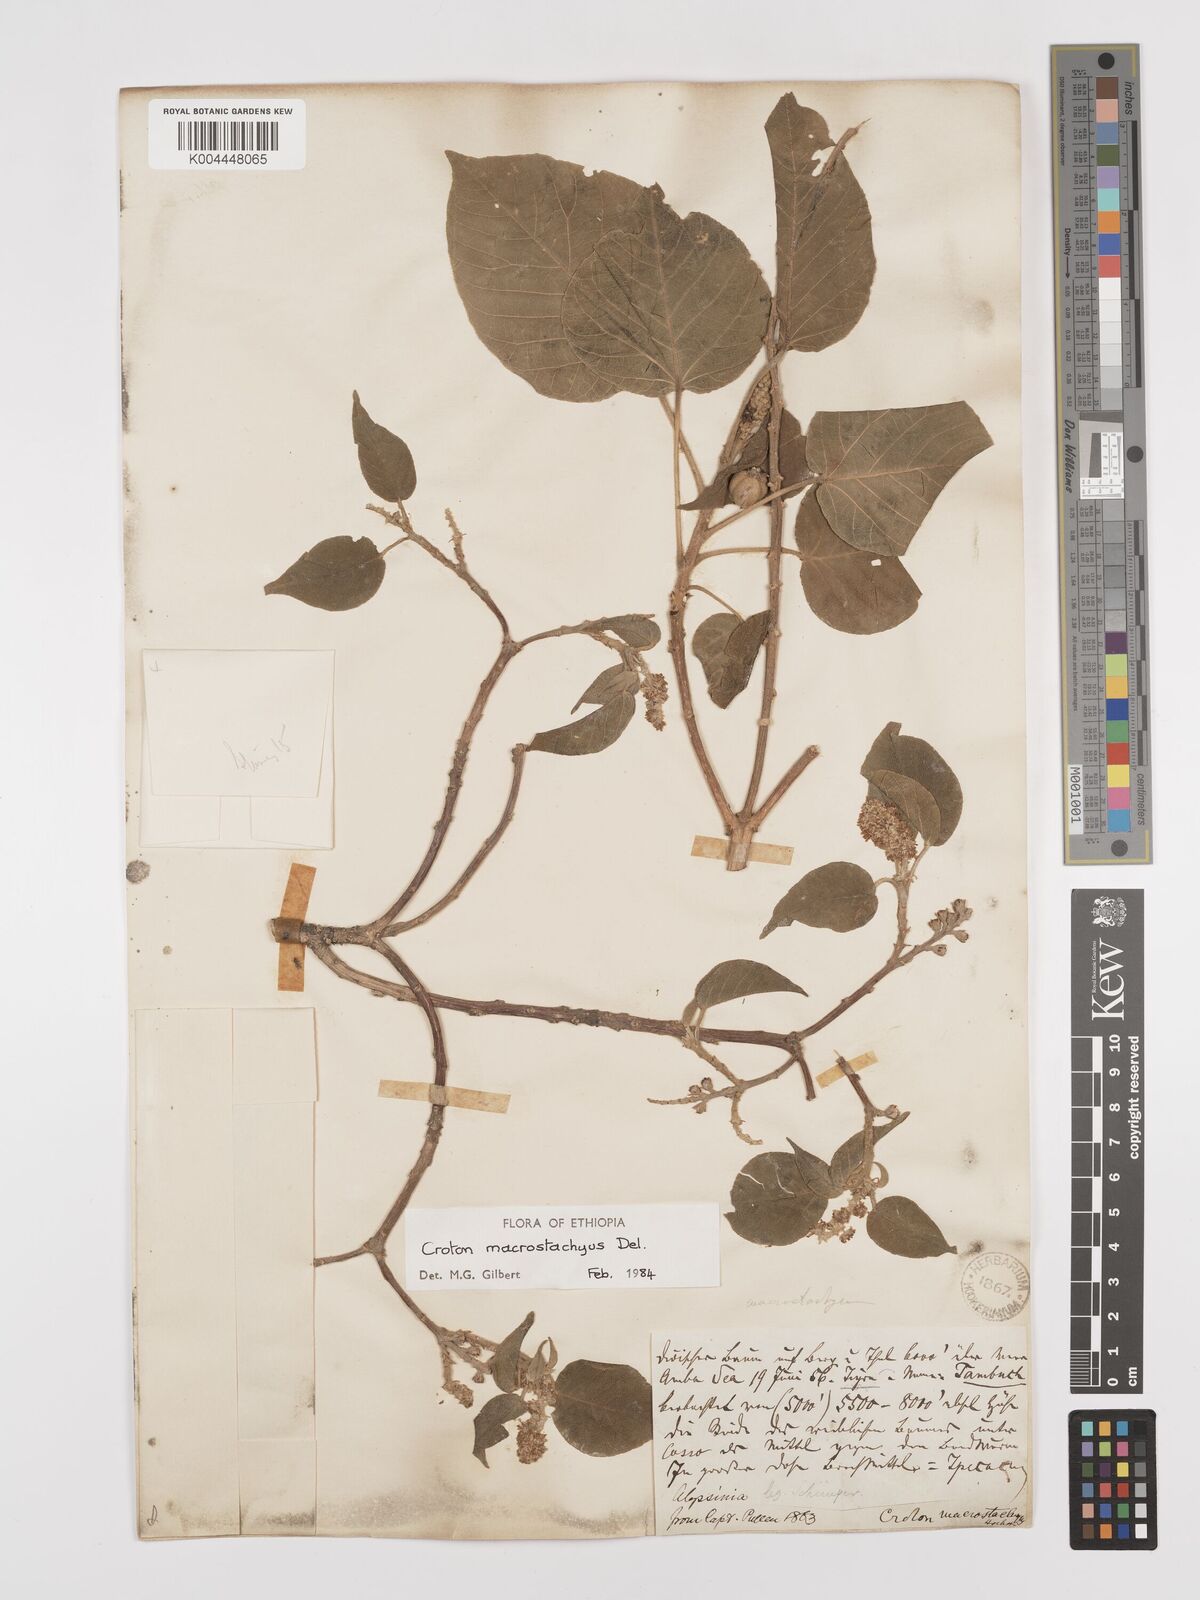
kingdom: Plantae
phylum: Tracheophyta
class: Magnoliopsida
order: Malpighiales
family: Euphorbiaceae
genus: Croton
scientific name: Croton macrostachyus
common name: Mutundu
